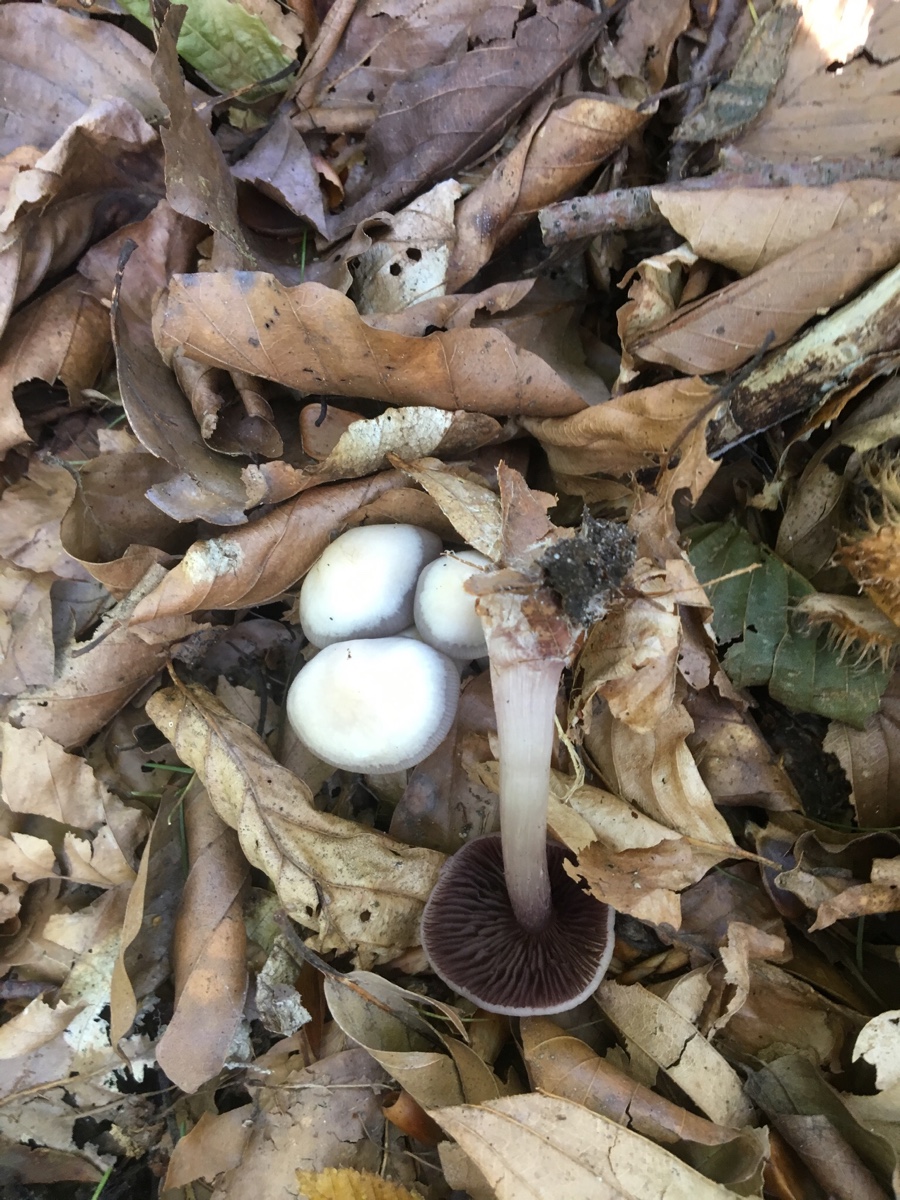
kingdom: Fungi
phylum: Basidiomycota
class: Agaricomycetes
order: Agaricales
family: Mycenaceae
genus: Mycena
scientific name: Mycena pelianthina
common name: mørkbladet huesvamp
